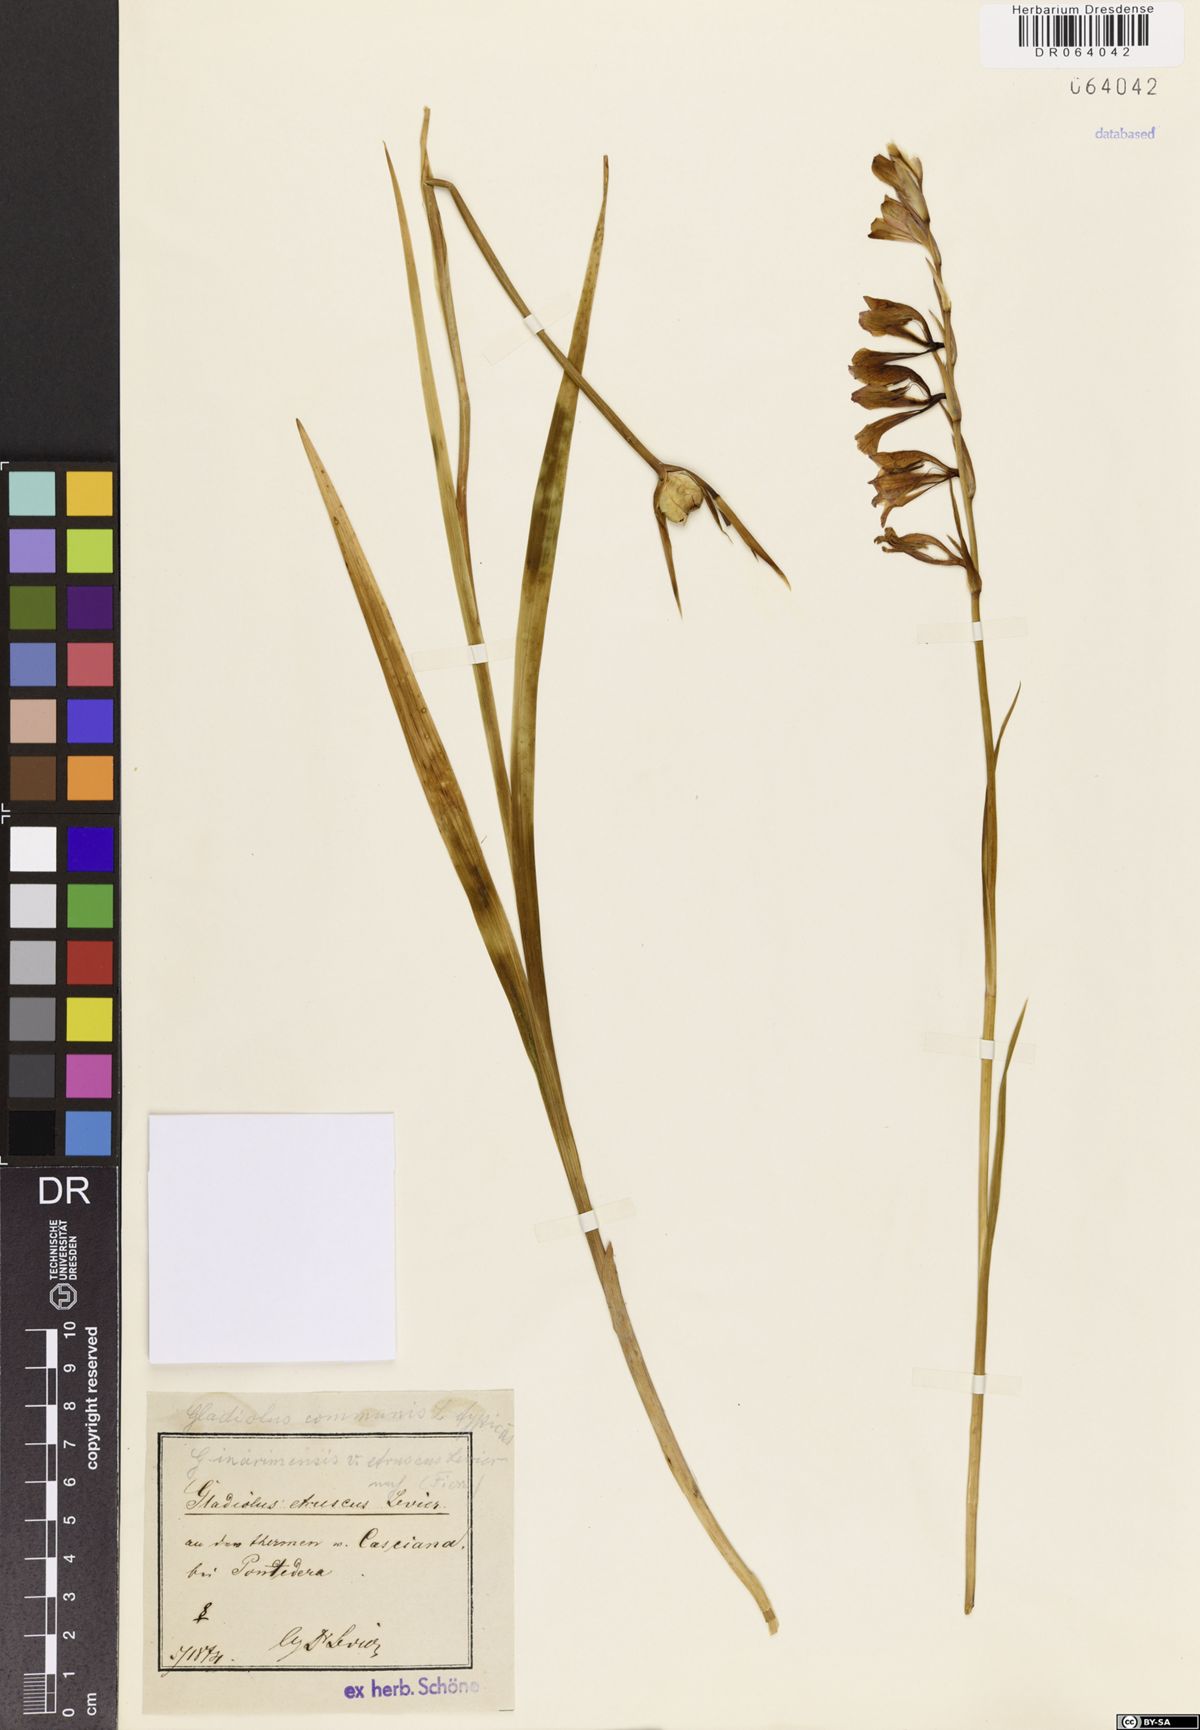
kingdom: Plantae
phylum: Tracheophyta
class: Liliopsida
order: Asparagales
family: Iridaceae
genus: Gladiolus
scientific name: Gladiolus communis
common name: Eastern gladiolus
